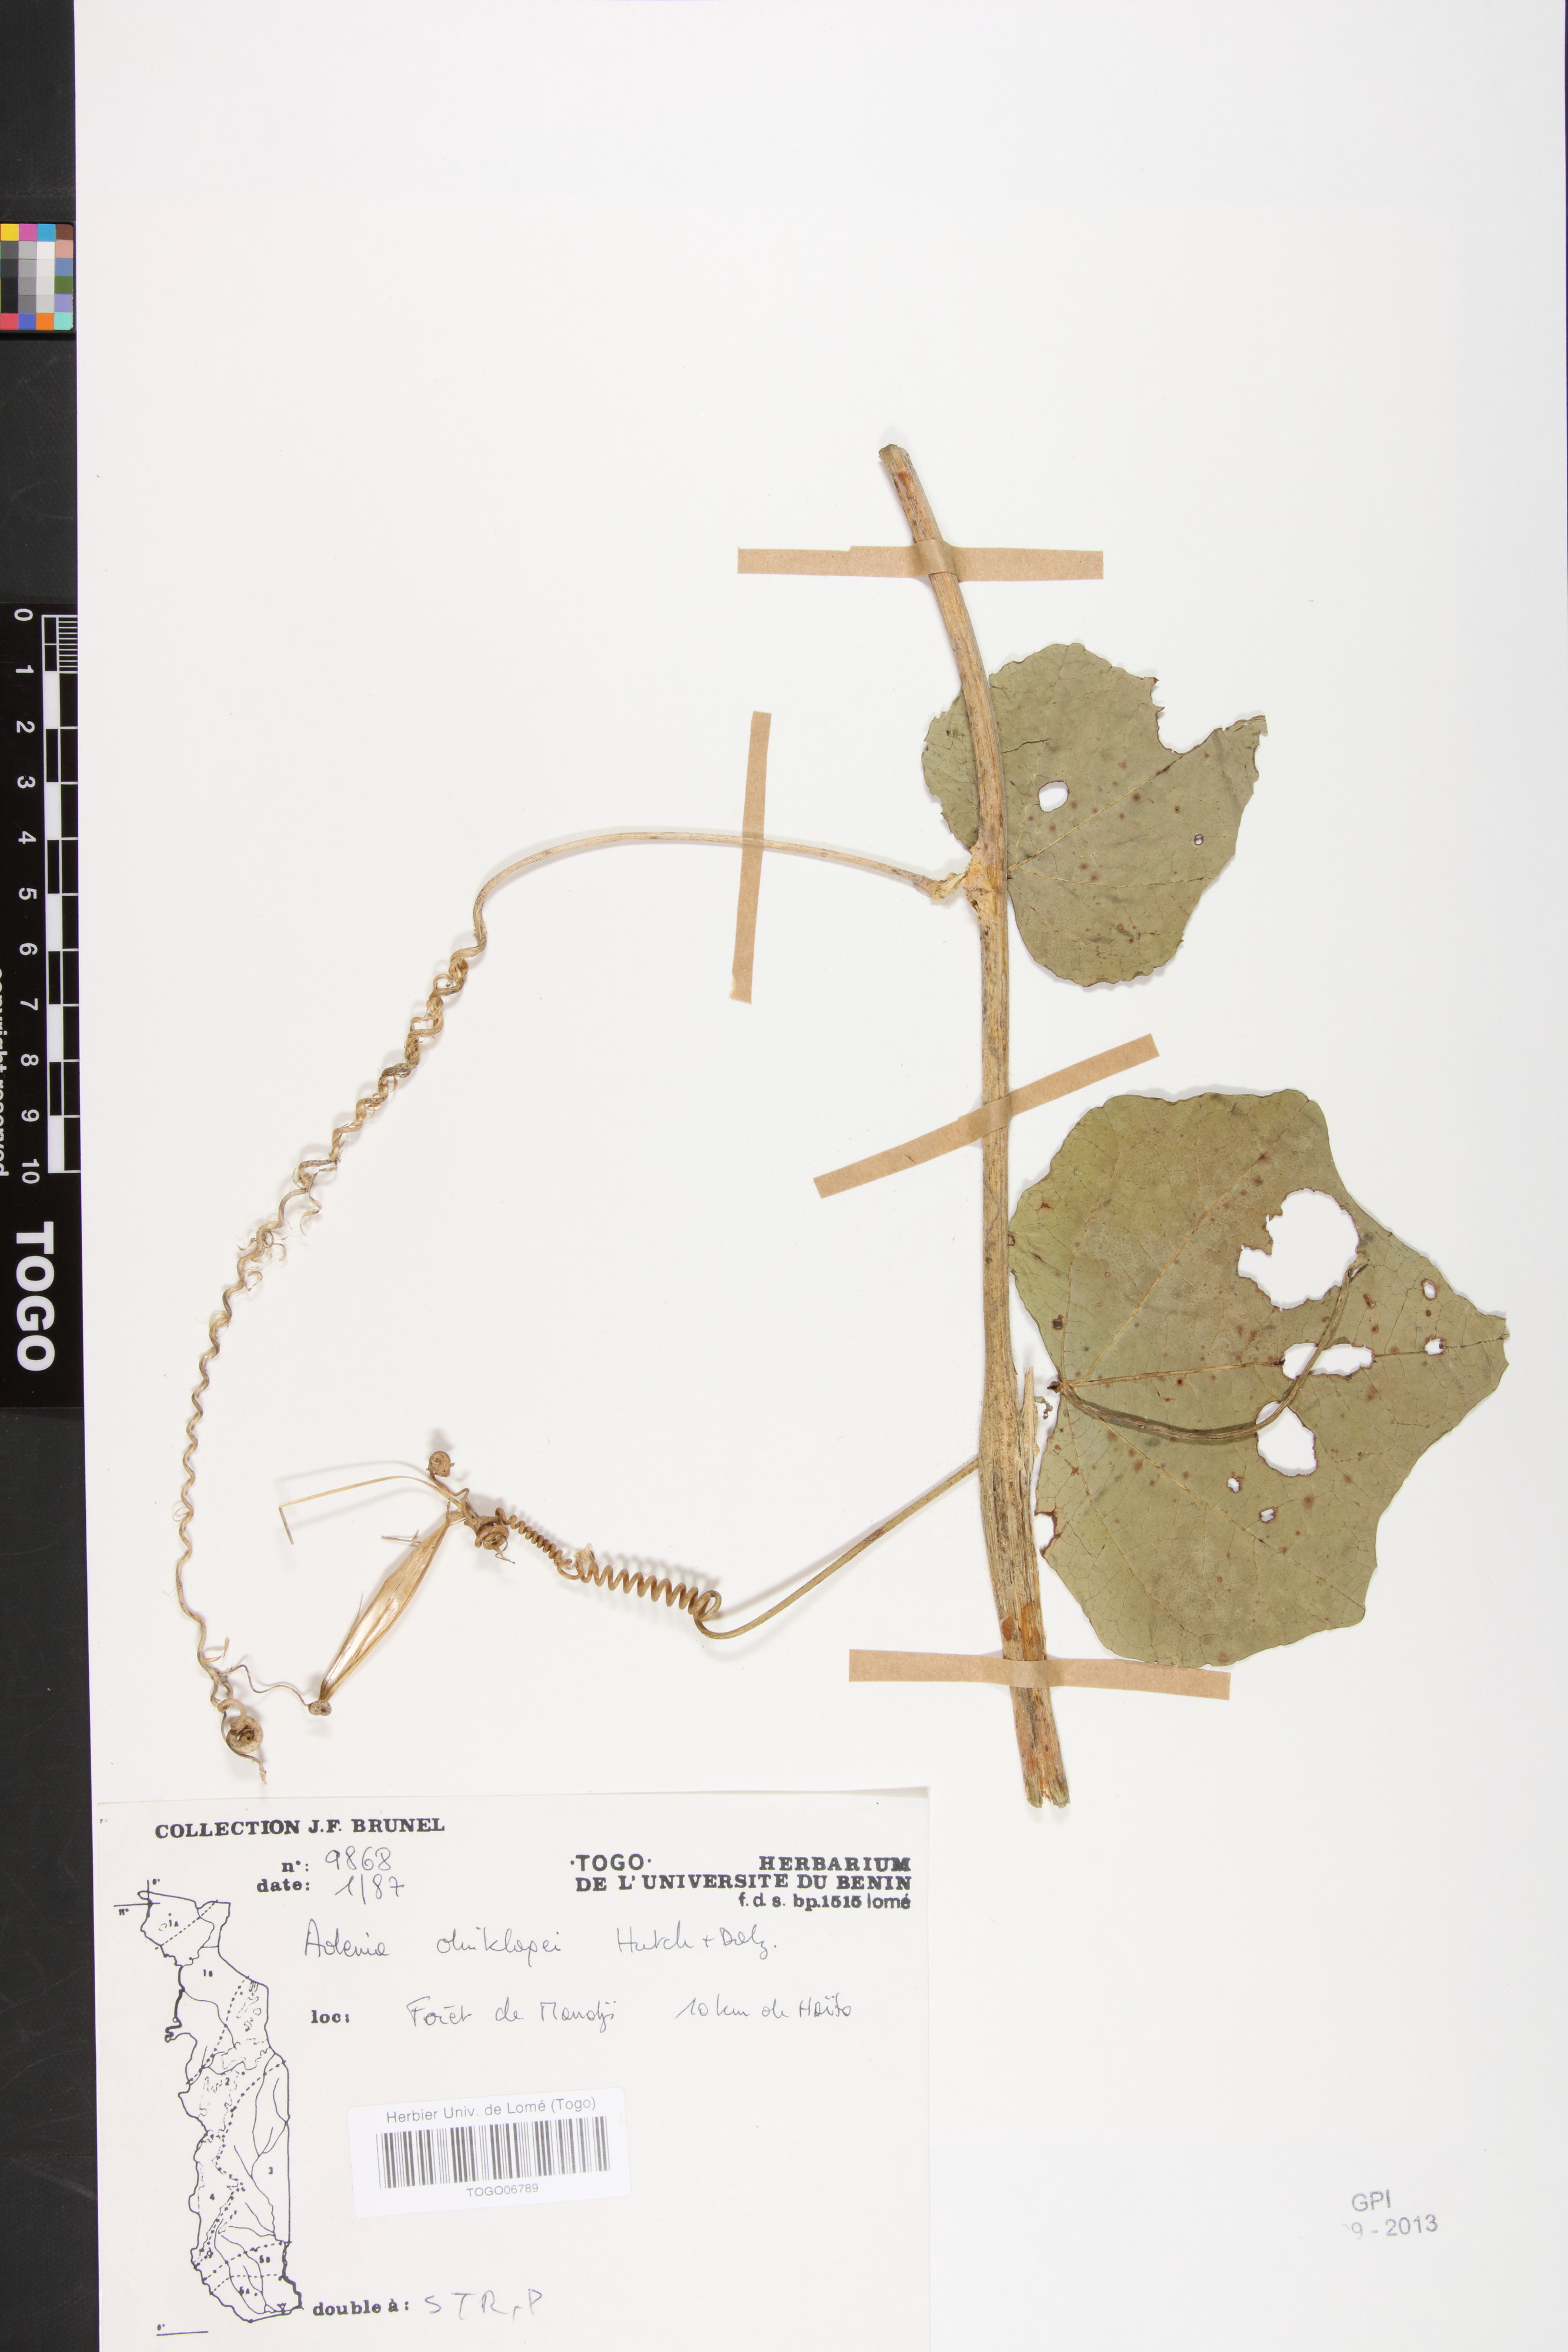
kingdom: Plantae
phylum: Tracheophyta
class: Magnoliopsida
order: Malpighiales
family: Passifloraceae
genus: Adenia
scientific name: Adenia dinklagei
